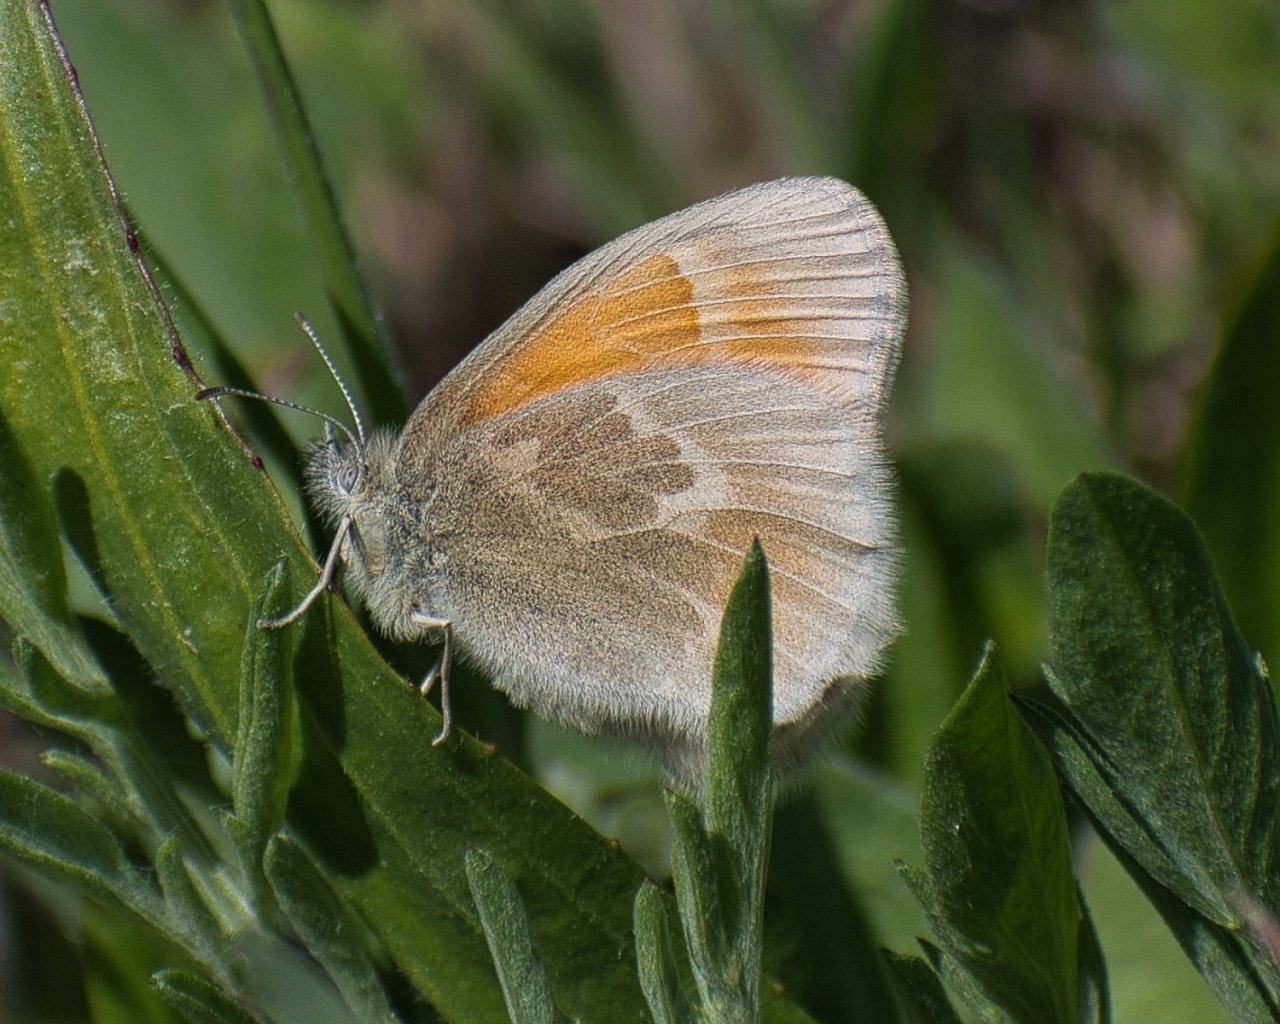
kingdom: Animalia
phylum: Arthropoda
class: Insecta
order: Lepidoptera
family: Nymphalidae
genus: Coenonympha
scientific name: Coenonympha tullia
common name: Large Heath
